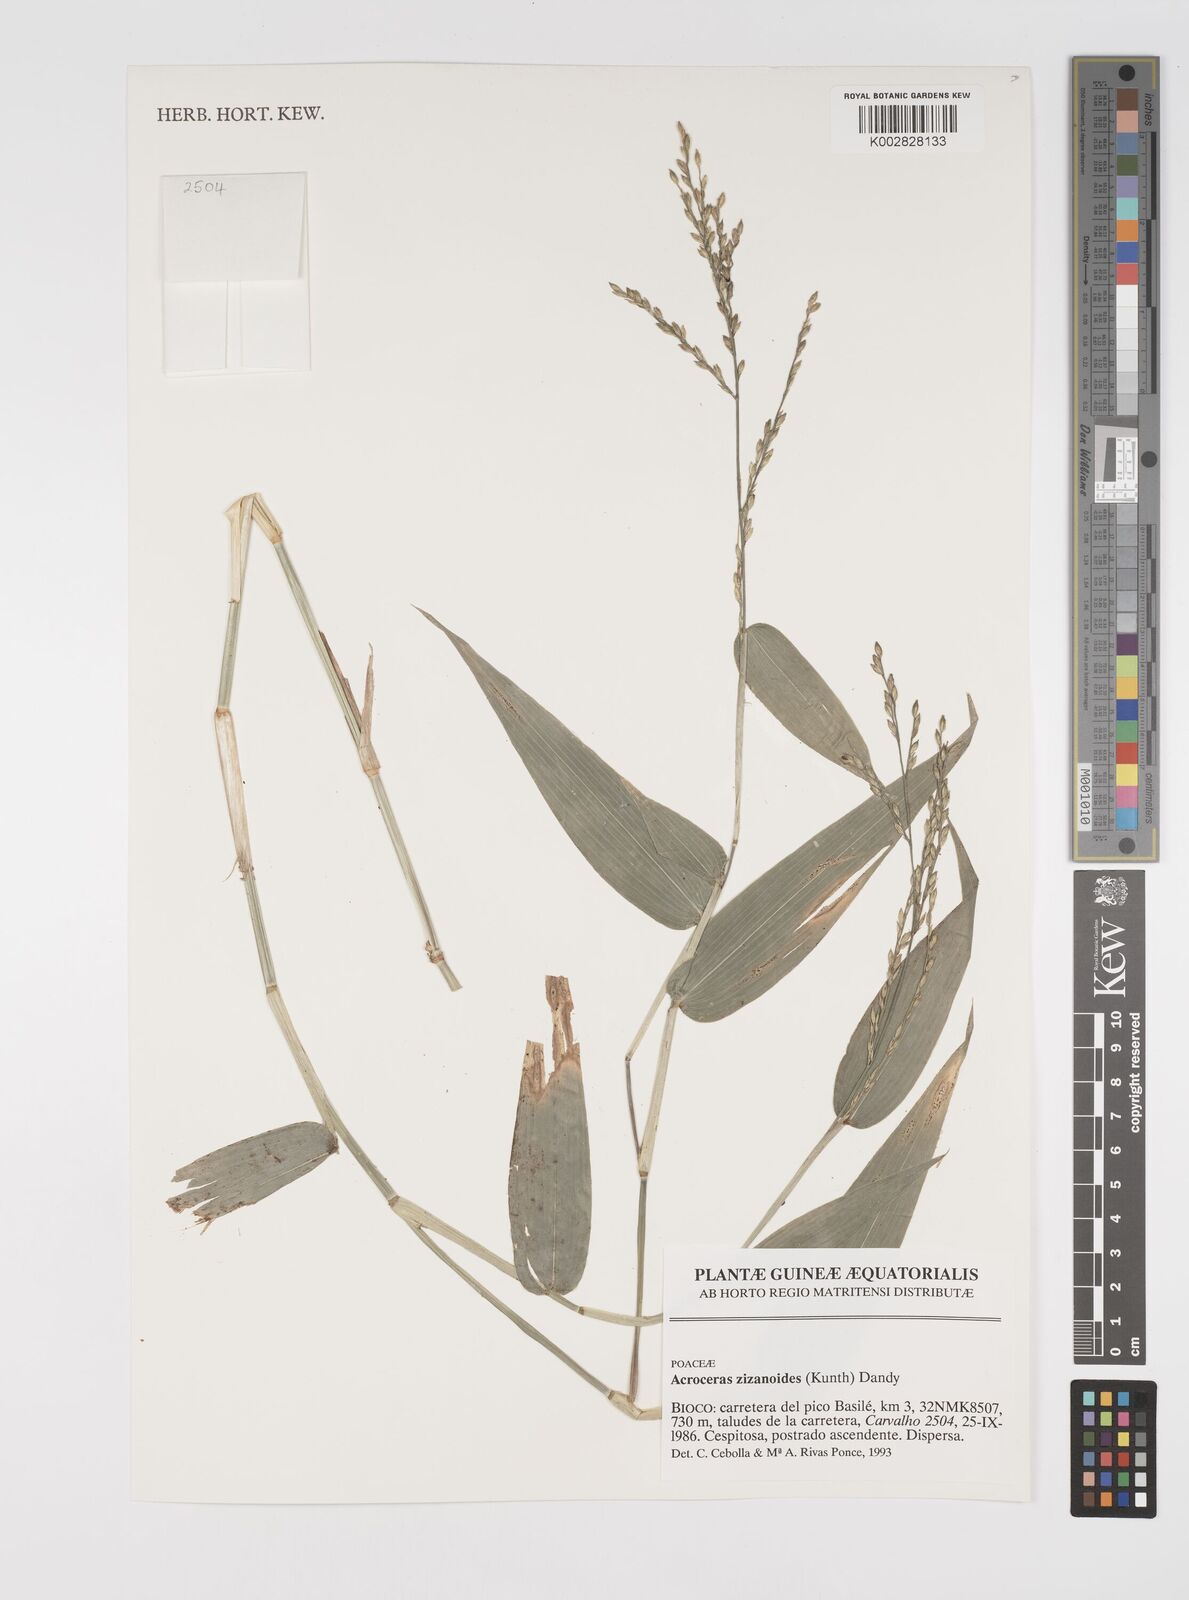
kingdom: Plantae
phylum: Tracheophyta
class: Liliopsida
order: Poales
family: Poaceae
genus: Acroceras
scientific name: Acroceras zizanioides
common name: Oat grass
